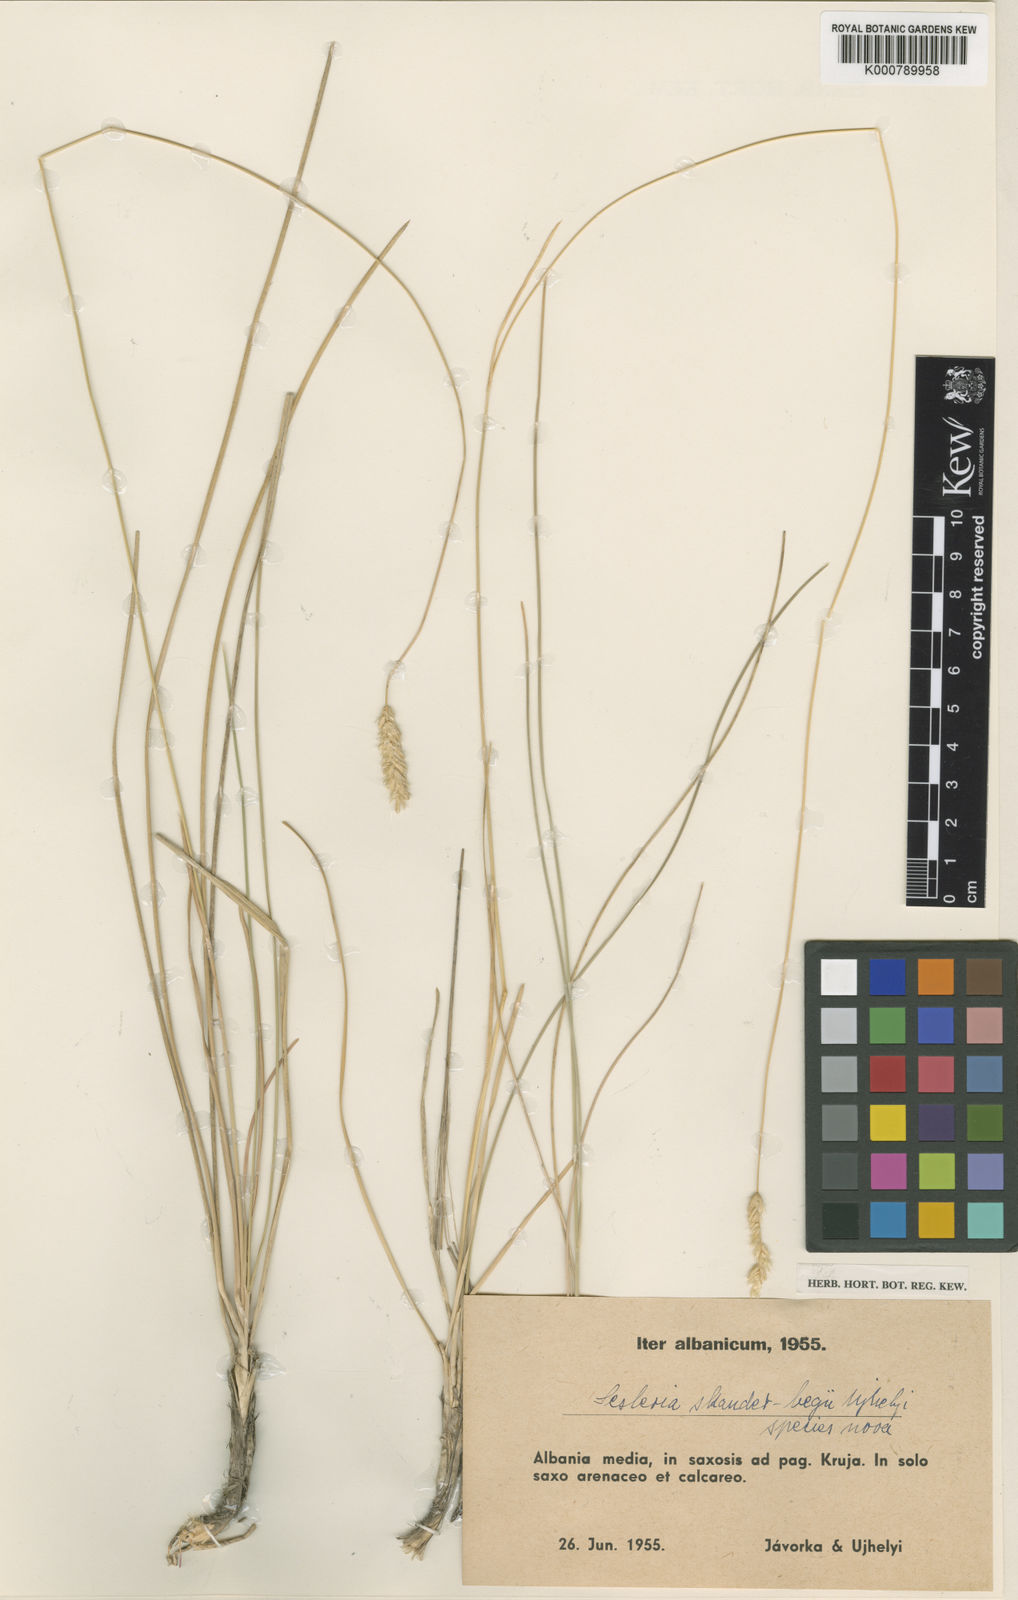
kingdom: Plantae
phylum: Tracheophyta
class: Liliopsida
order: Poales
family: Poaceae
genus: Sesleria
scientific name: Sesleria
